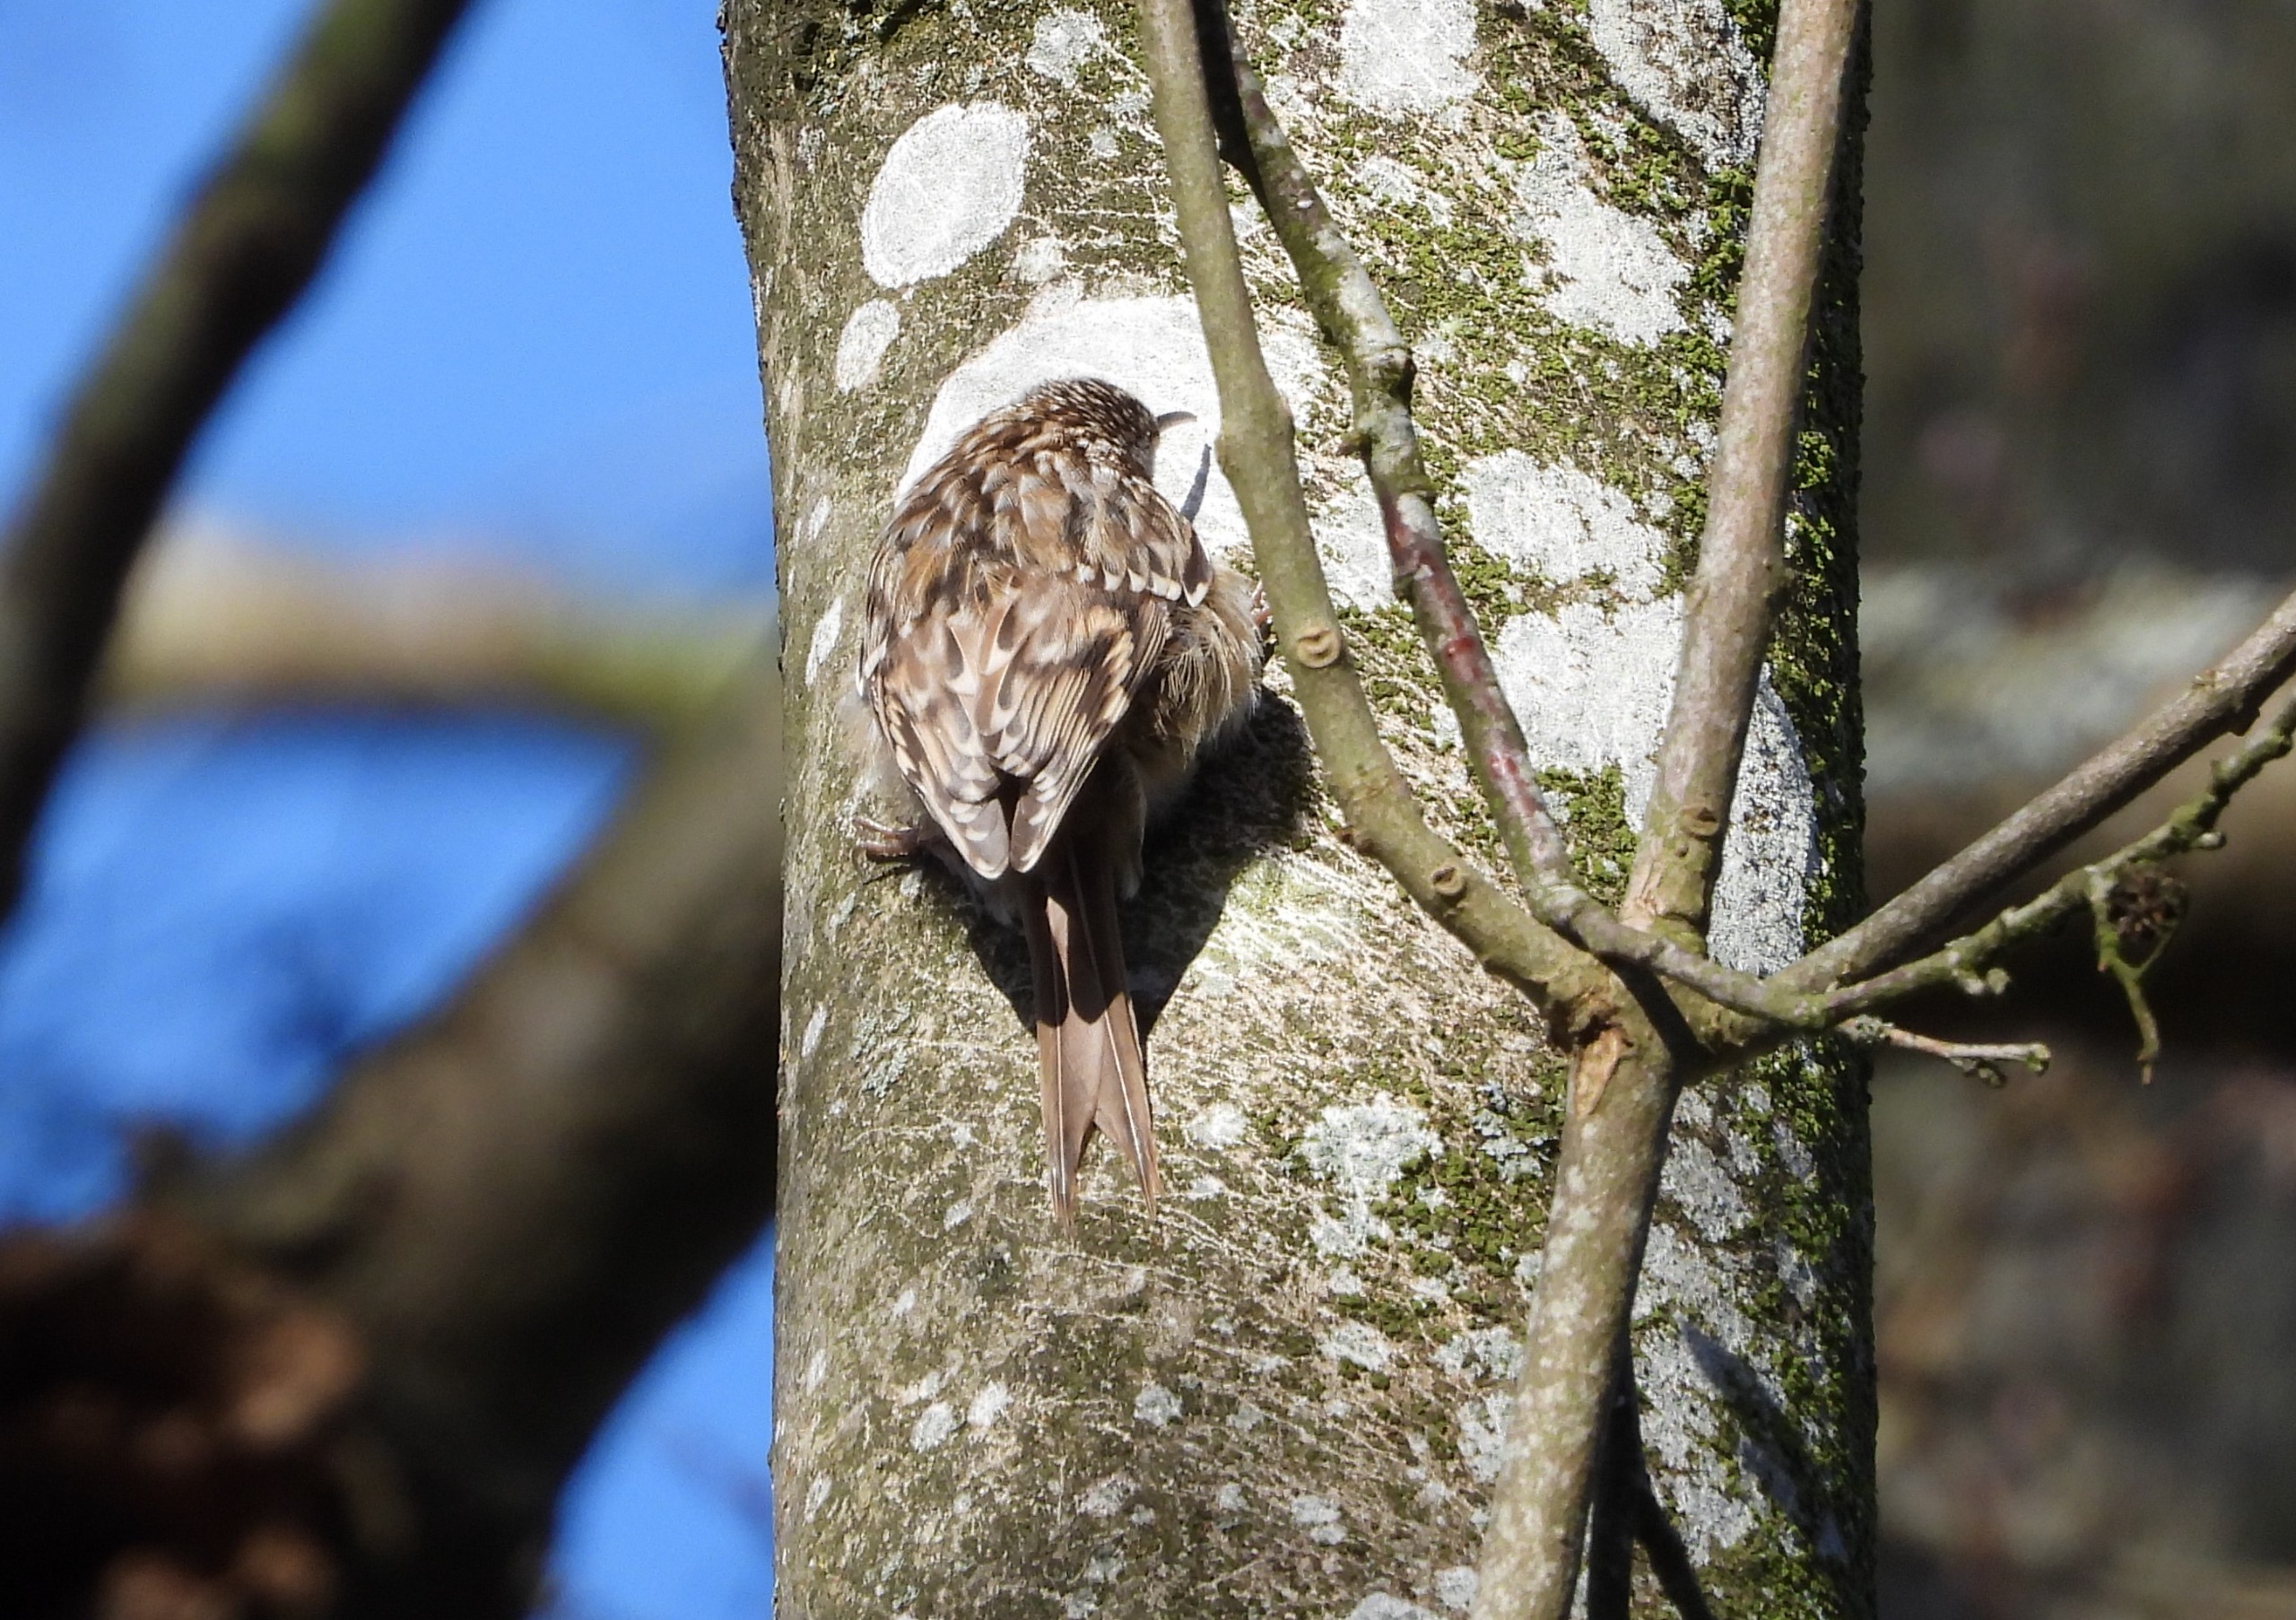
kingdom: Animalia
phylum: Chordata
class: Aves
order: Passeriformes
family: Certhiidae
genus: Certhia
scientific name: Certhia brachydactyla
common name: Korttået træløber
